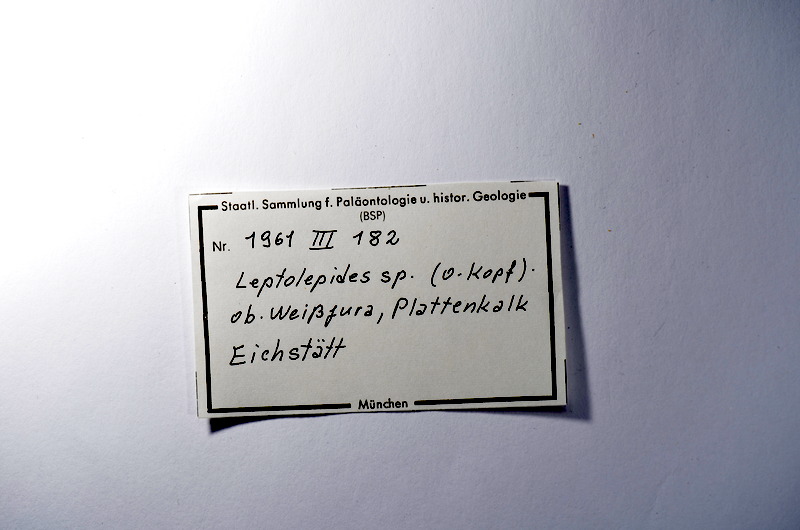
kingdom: Animalia
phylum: Chordata
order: Salmoniformes
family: Orthogonikleithridae
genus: Leptolepides
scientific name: Leptolepides
